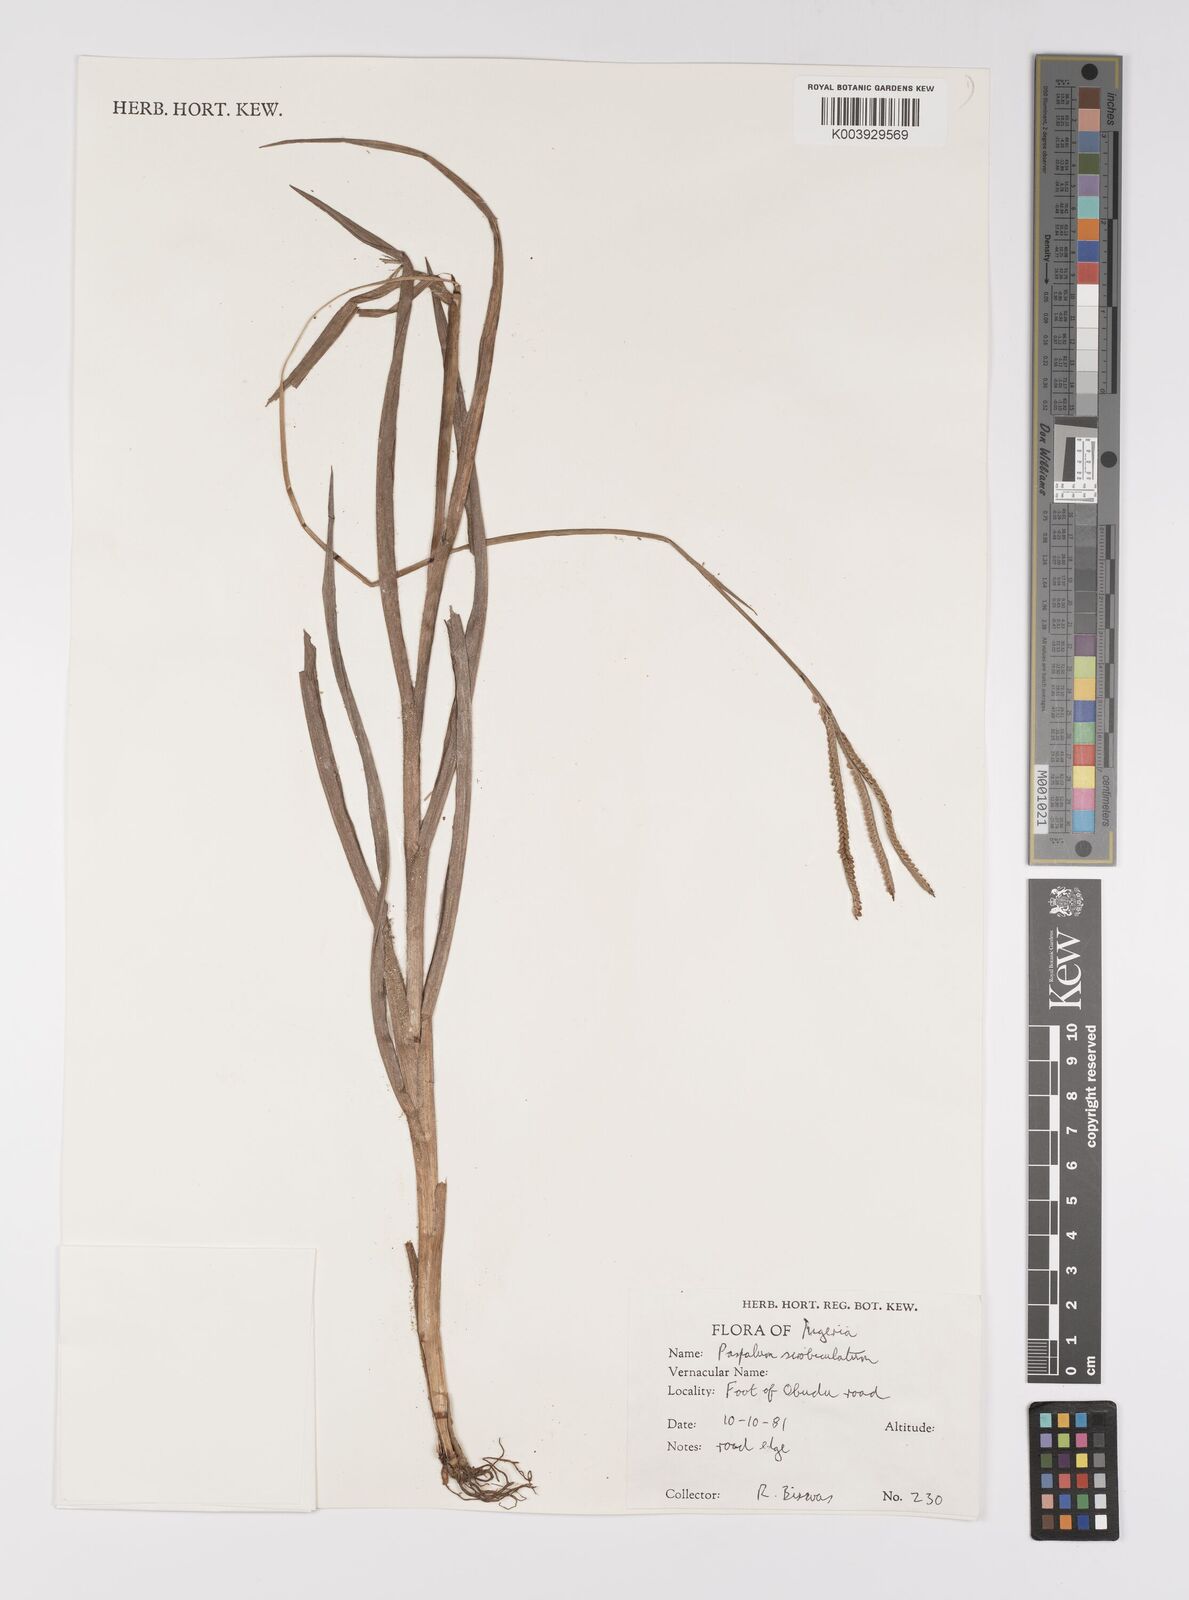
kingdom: Plantae
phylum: Tracheophyta
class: Liliopsida
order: Poales
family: Poaceae
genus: Paspalum
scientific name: Paspalum scrobiculatum
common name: Kodo millet
